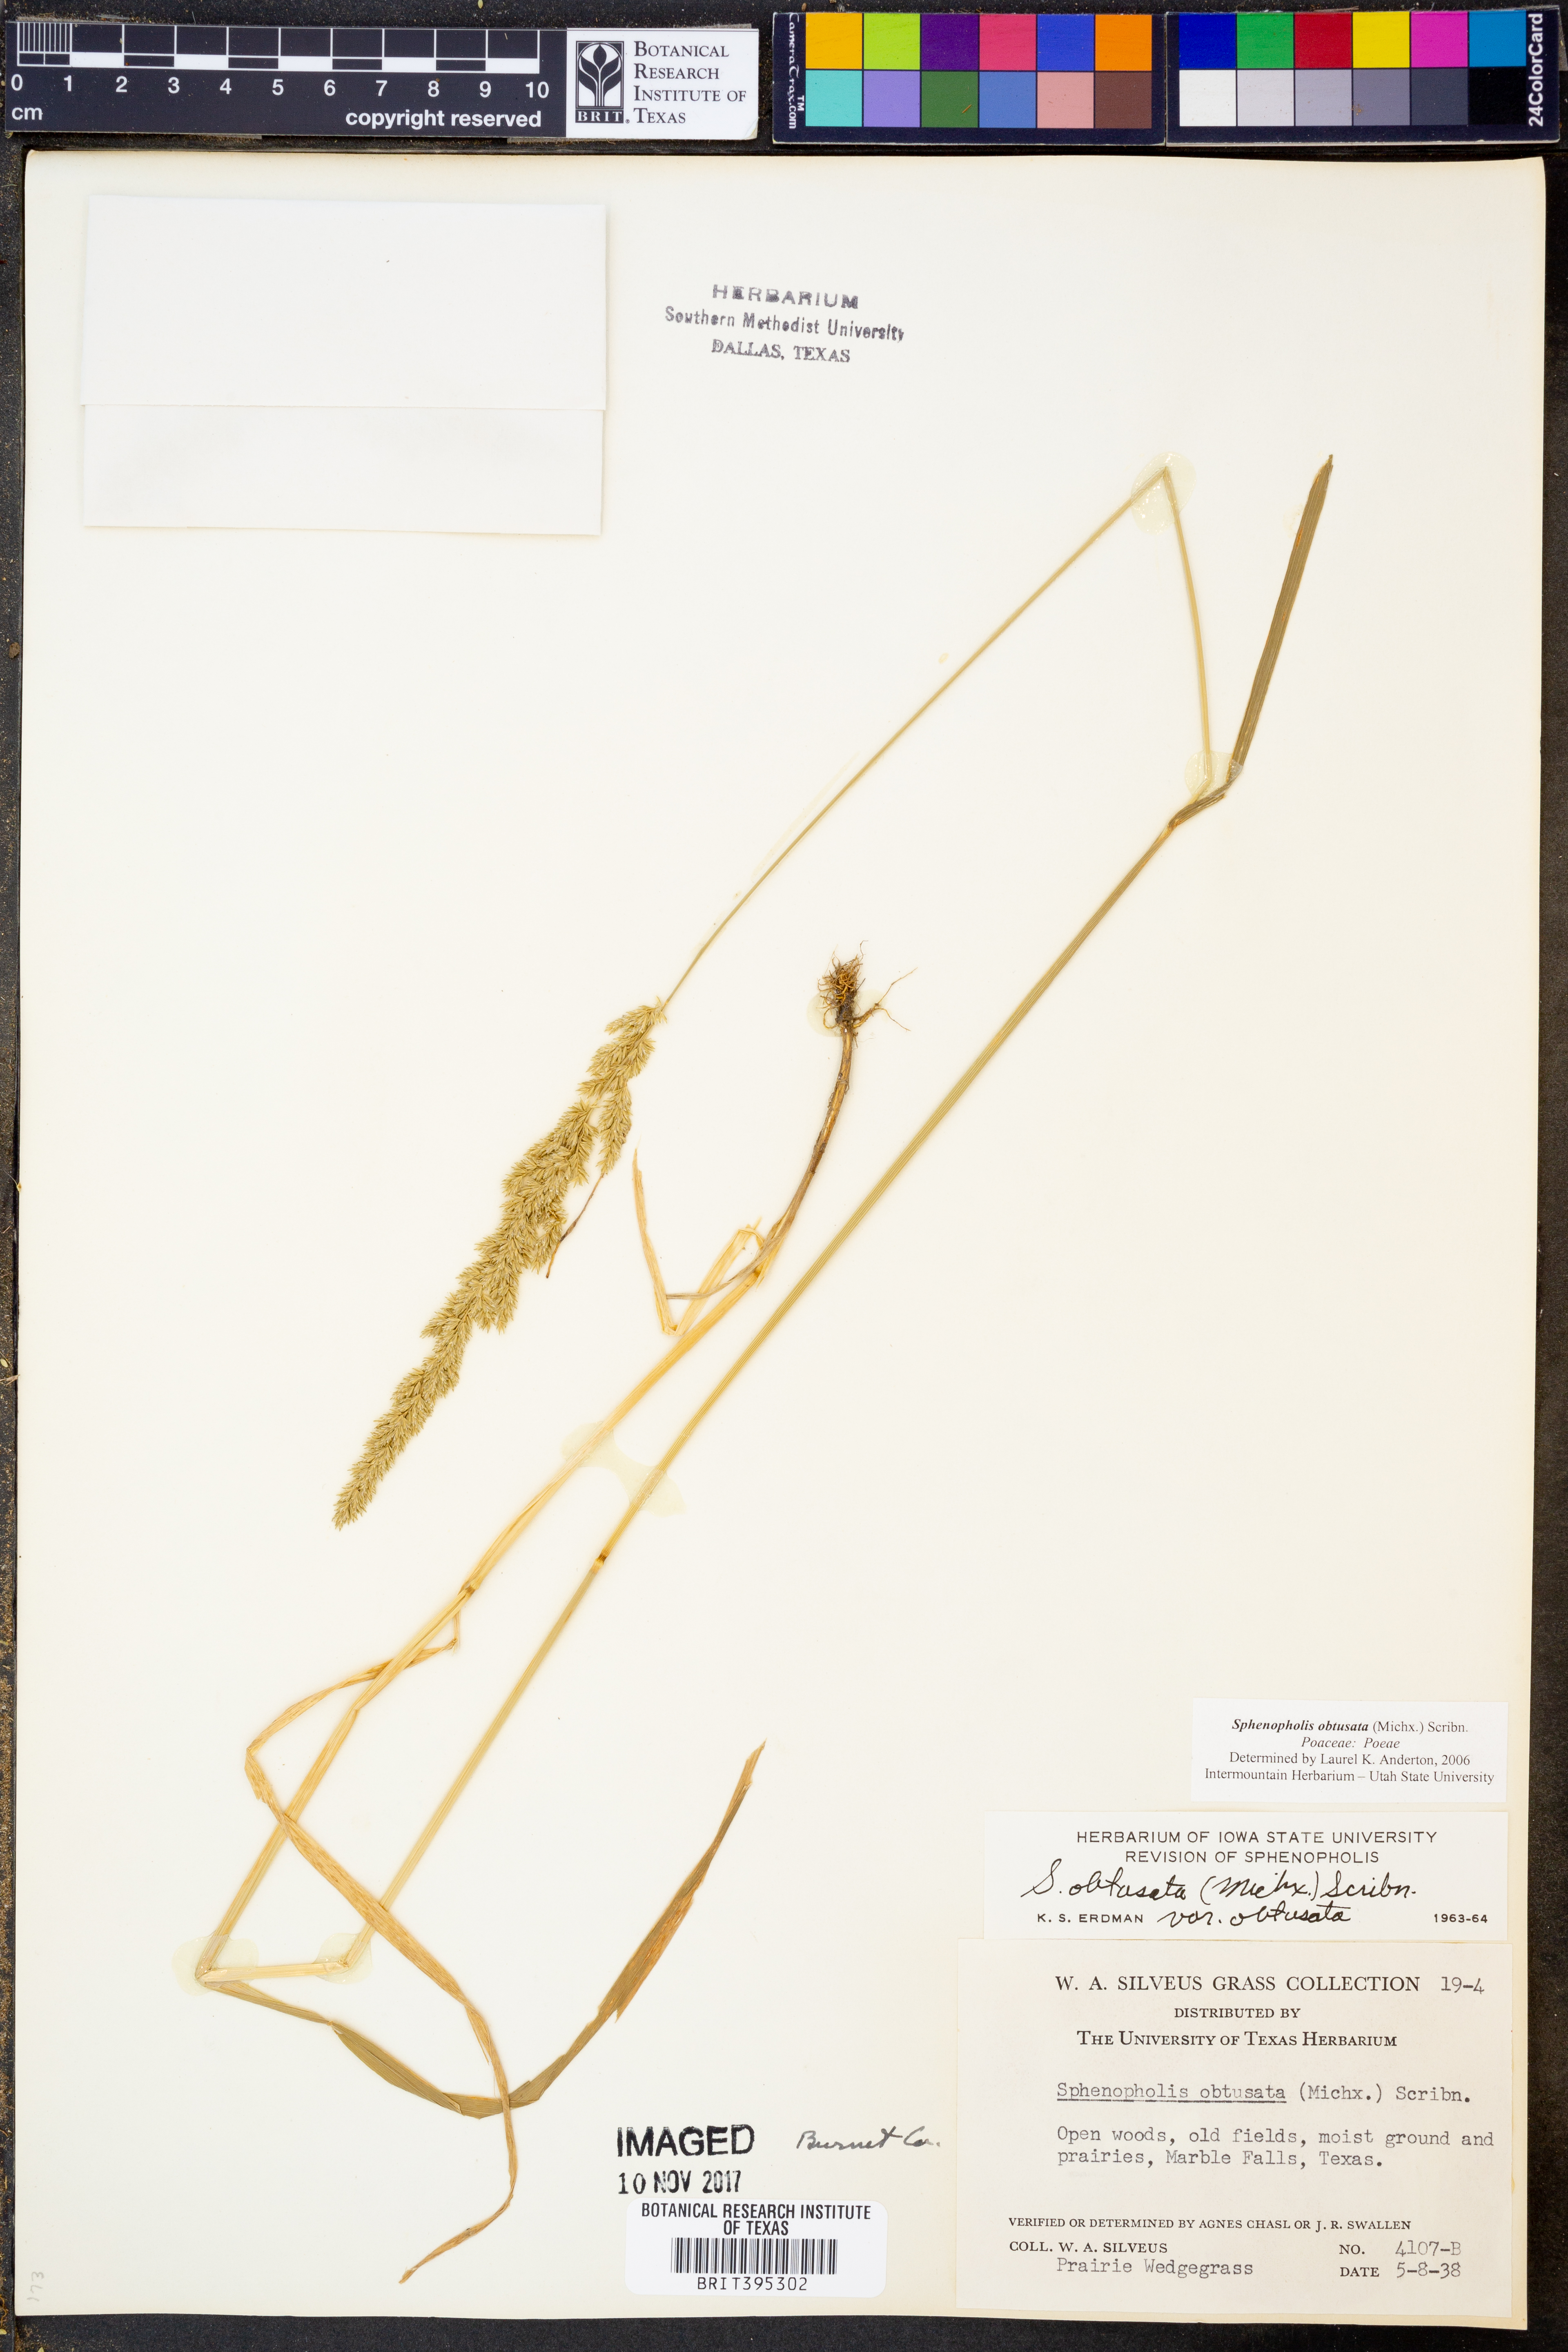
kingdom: Plantae
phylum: Tracheophyta
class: Liliopsida
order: Poales
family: Poaceae
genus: Sphenopholis
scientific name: Sphenopholis obtusata
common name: Prairie grass
